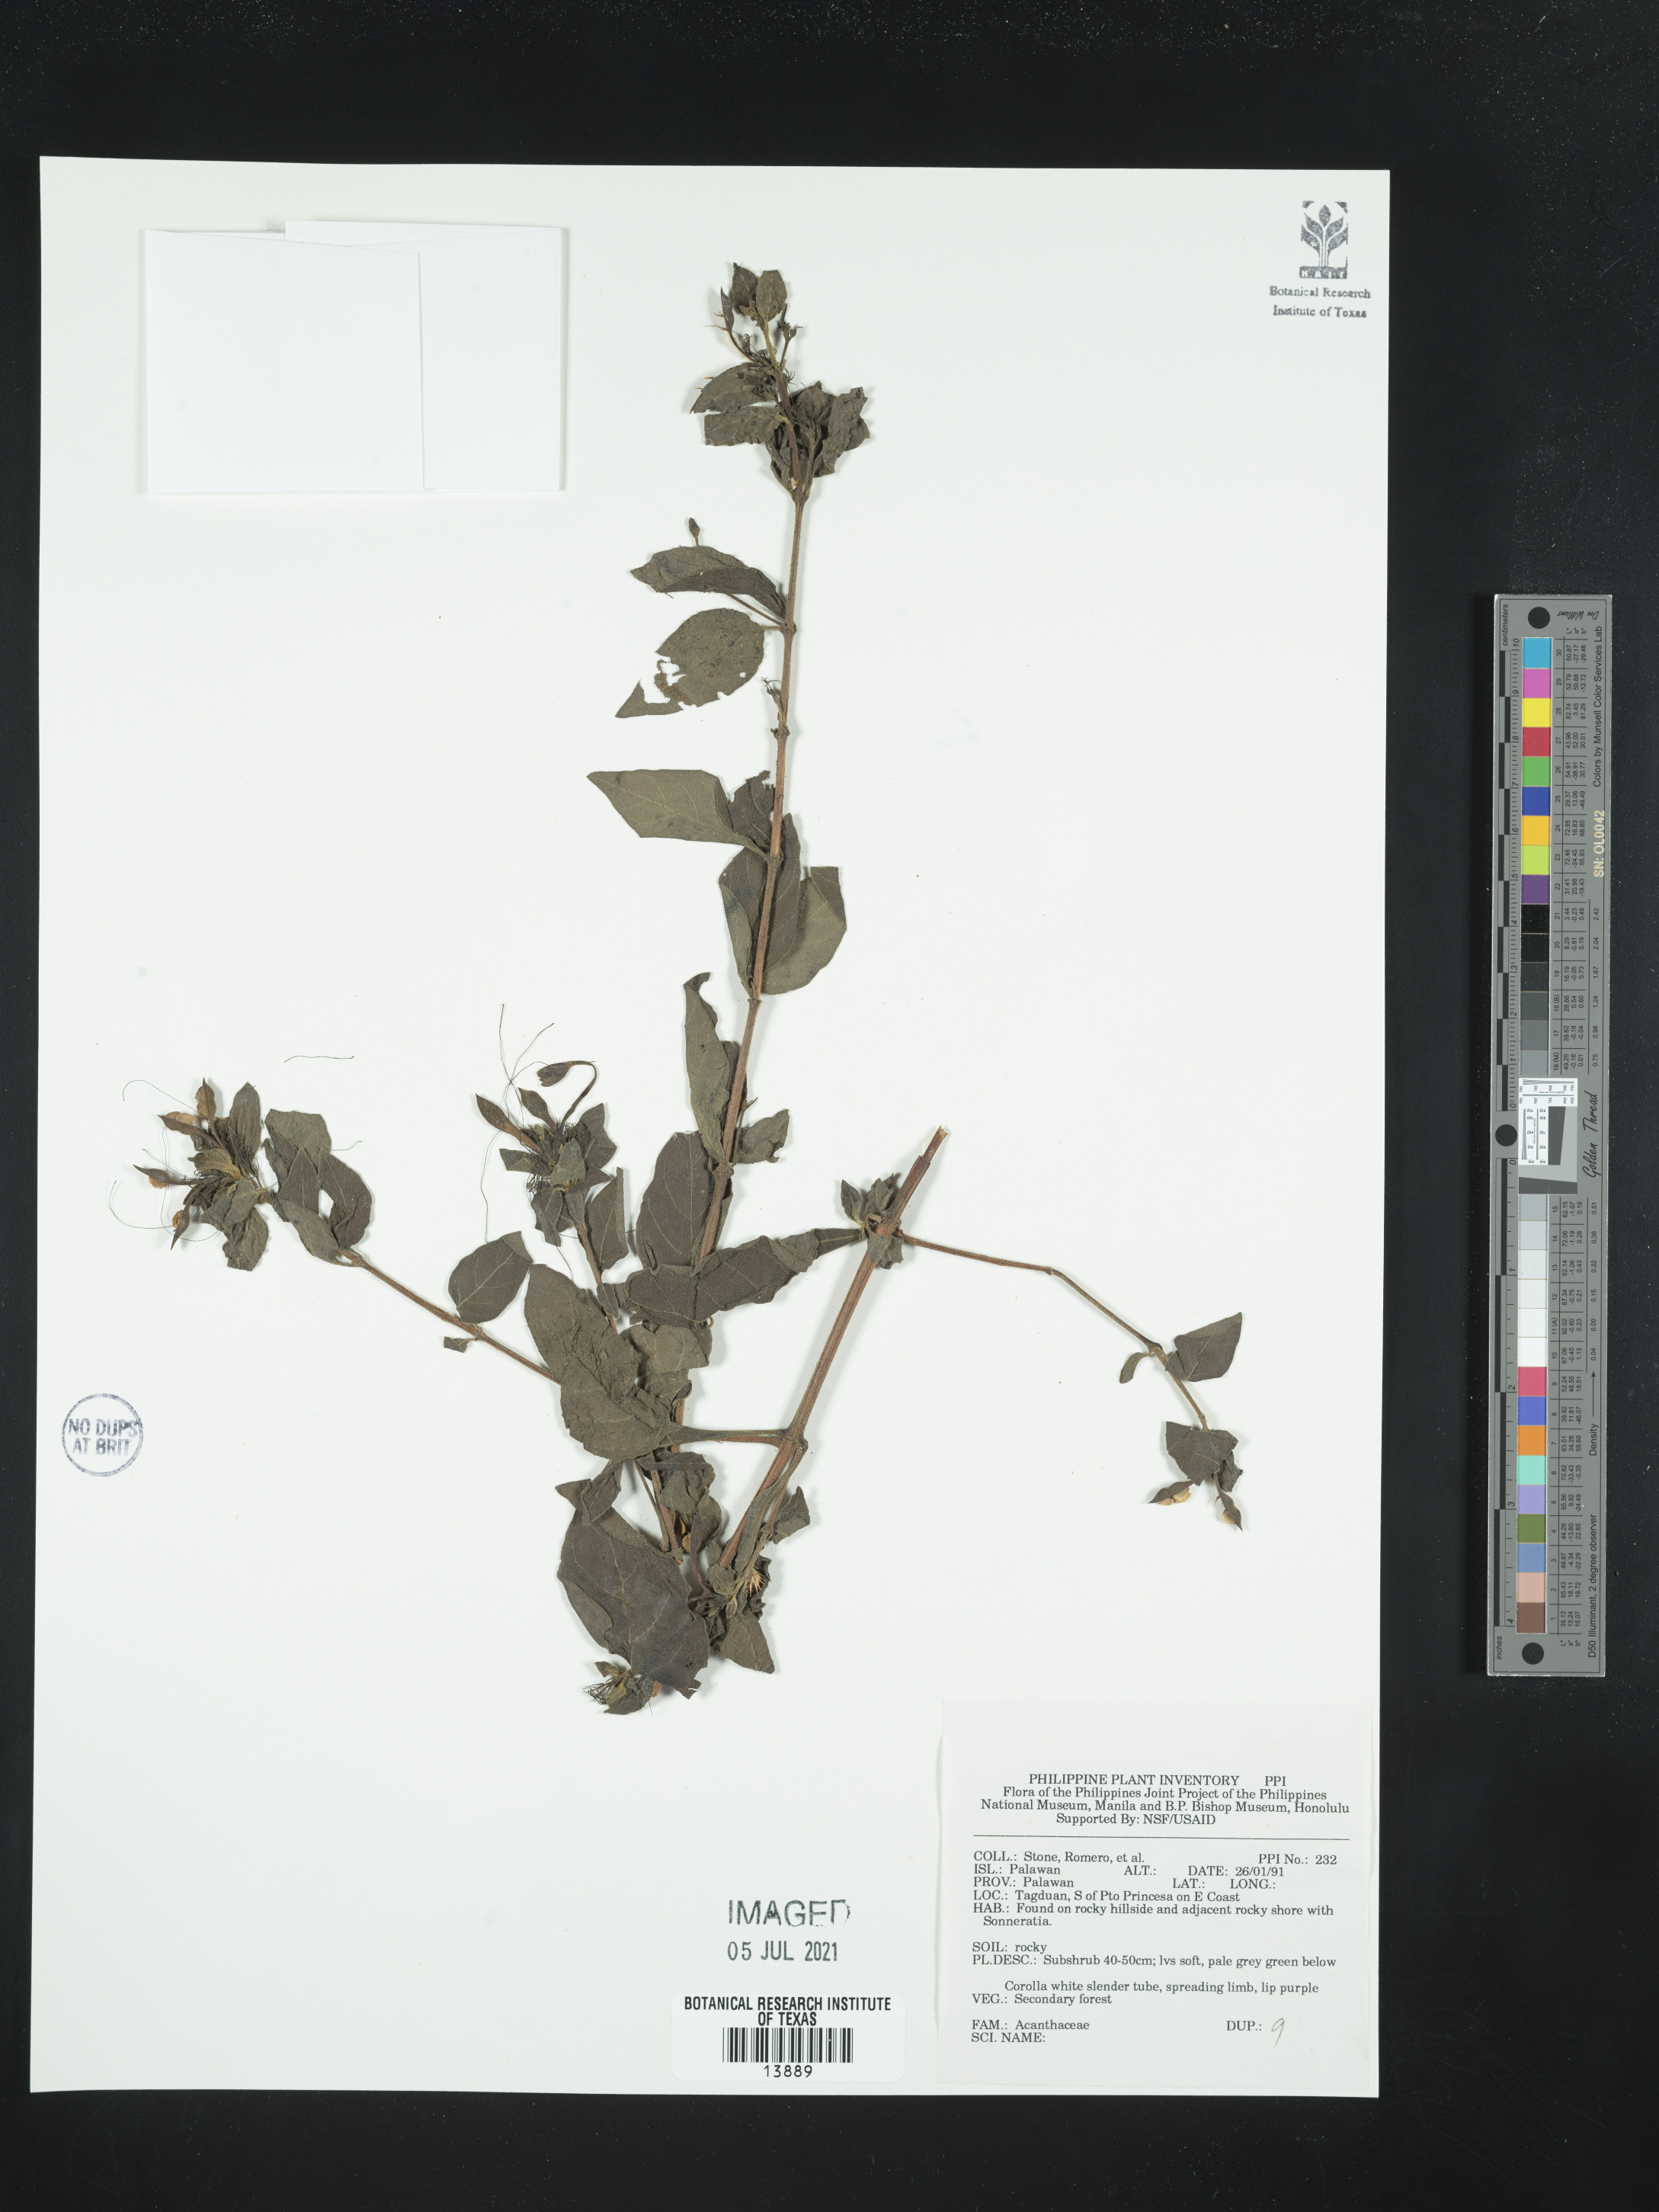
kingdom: Plantae
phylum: Tracheophyta
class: Magnoliopsida
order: Lamiales
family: Acanthaceae
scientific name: Acanthaceae
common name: Acanthaceae
